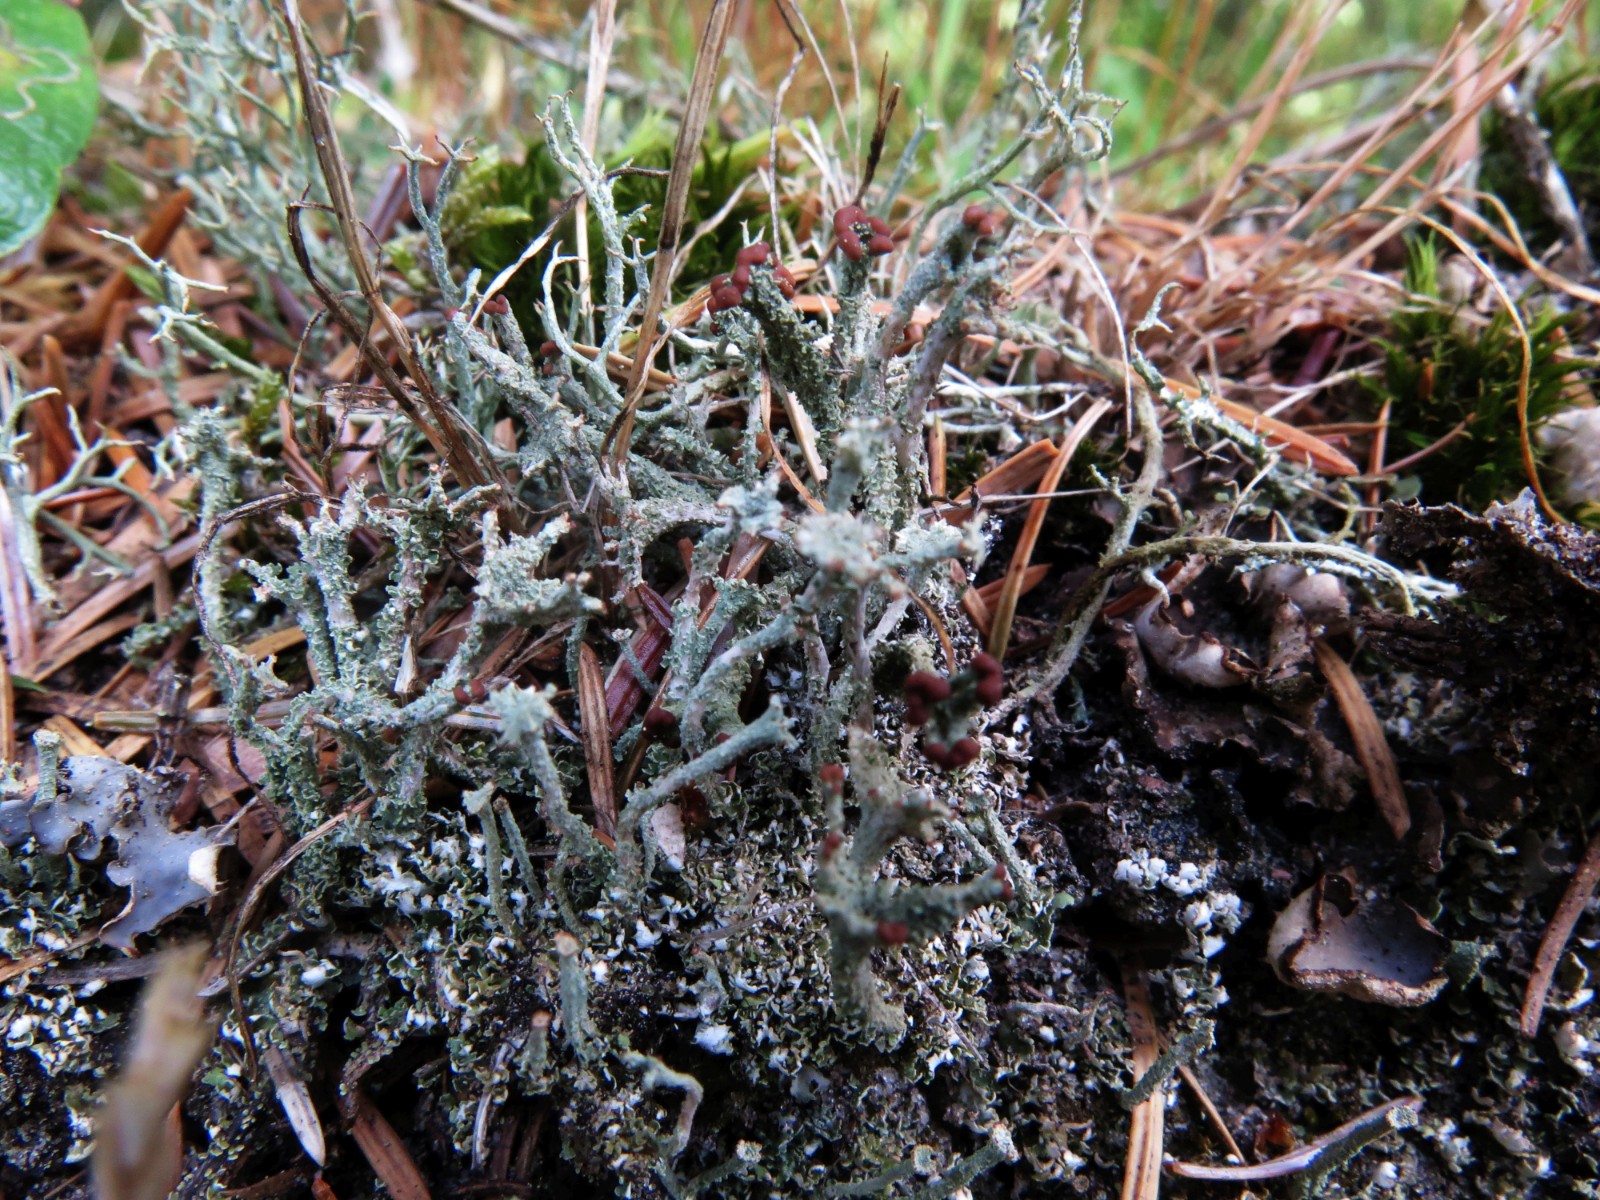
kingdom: Fungi
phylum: Ascomycota
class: Lecanoromycetes
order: Lecanorales
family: Cladoniaceae
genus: Cladonia
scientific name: Cladonia ramulosa
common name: kliddet bægerlav
